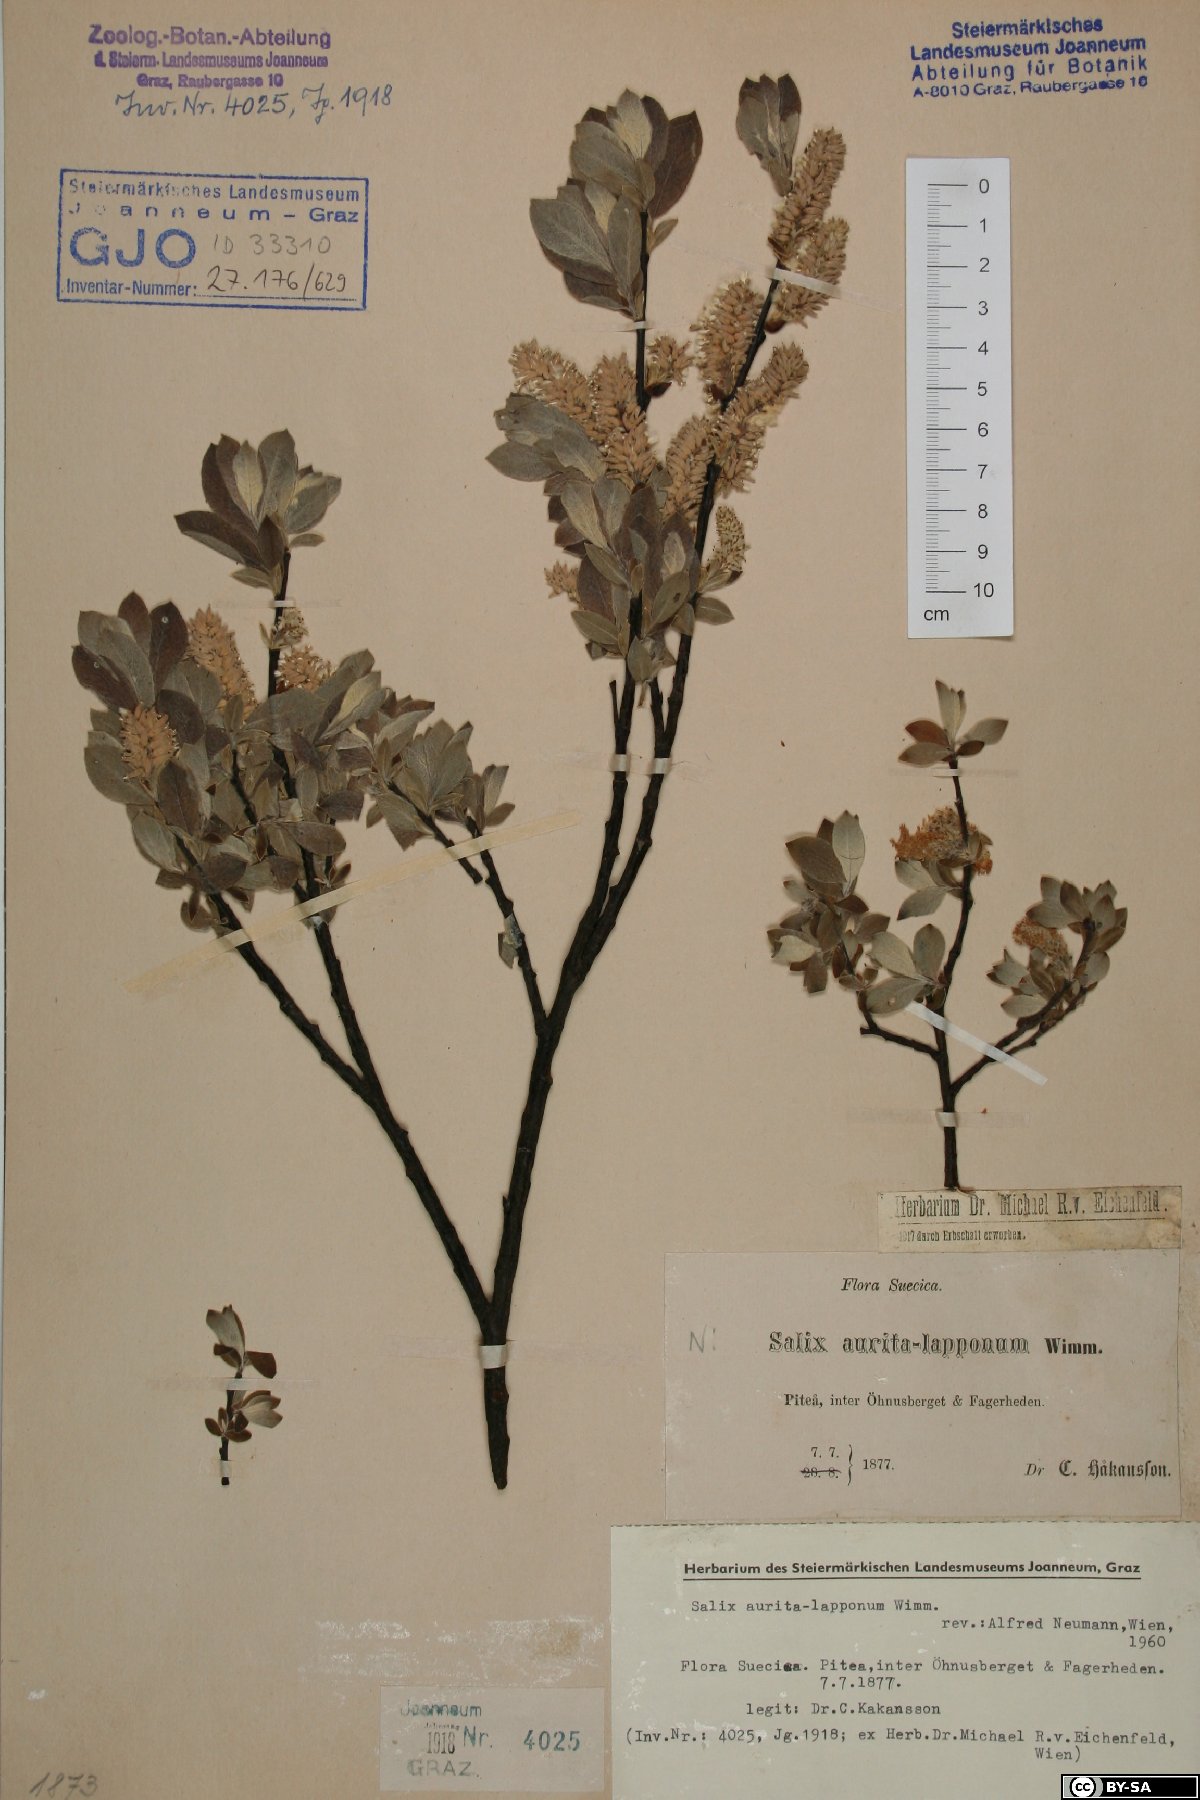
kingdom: Plantae
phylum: Tracheophyta
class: Magnoliopsida
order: Malpighiales
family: Salicaceae
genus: Salix
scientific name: Salix aurita
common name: Eared willow
